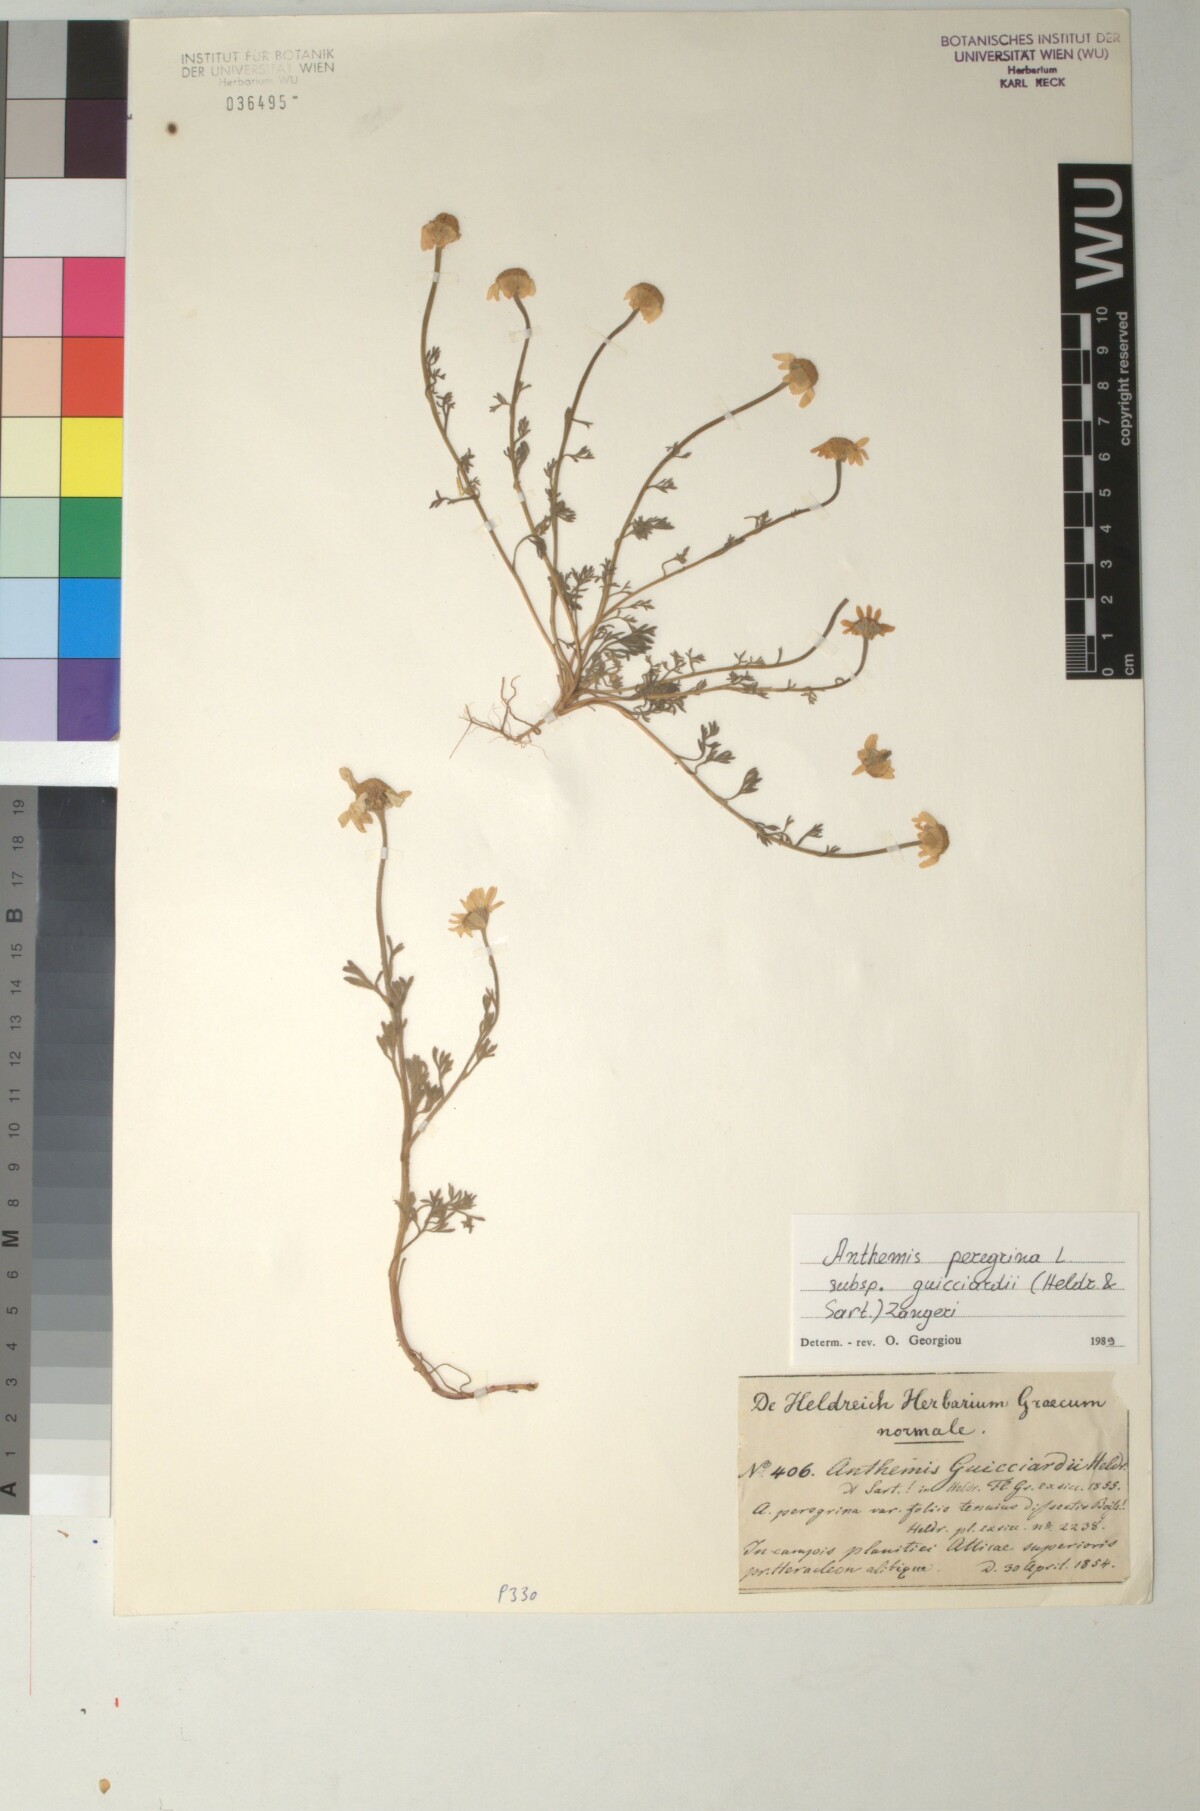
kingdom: Plantae
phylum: Tracheophyta
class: Magnoliopsida
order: Asterales
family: Asteraceae
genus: Anthemis
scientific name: Anthemis tomentosa
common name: Woolly chamomile
